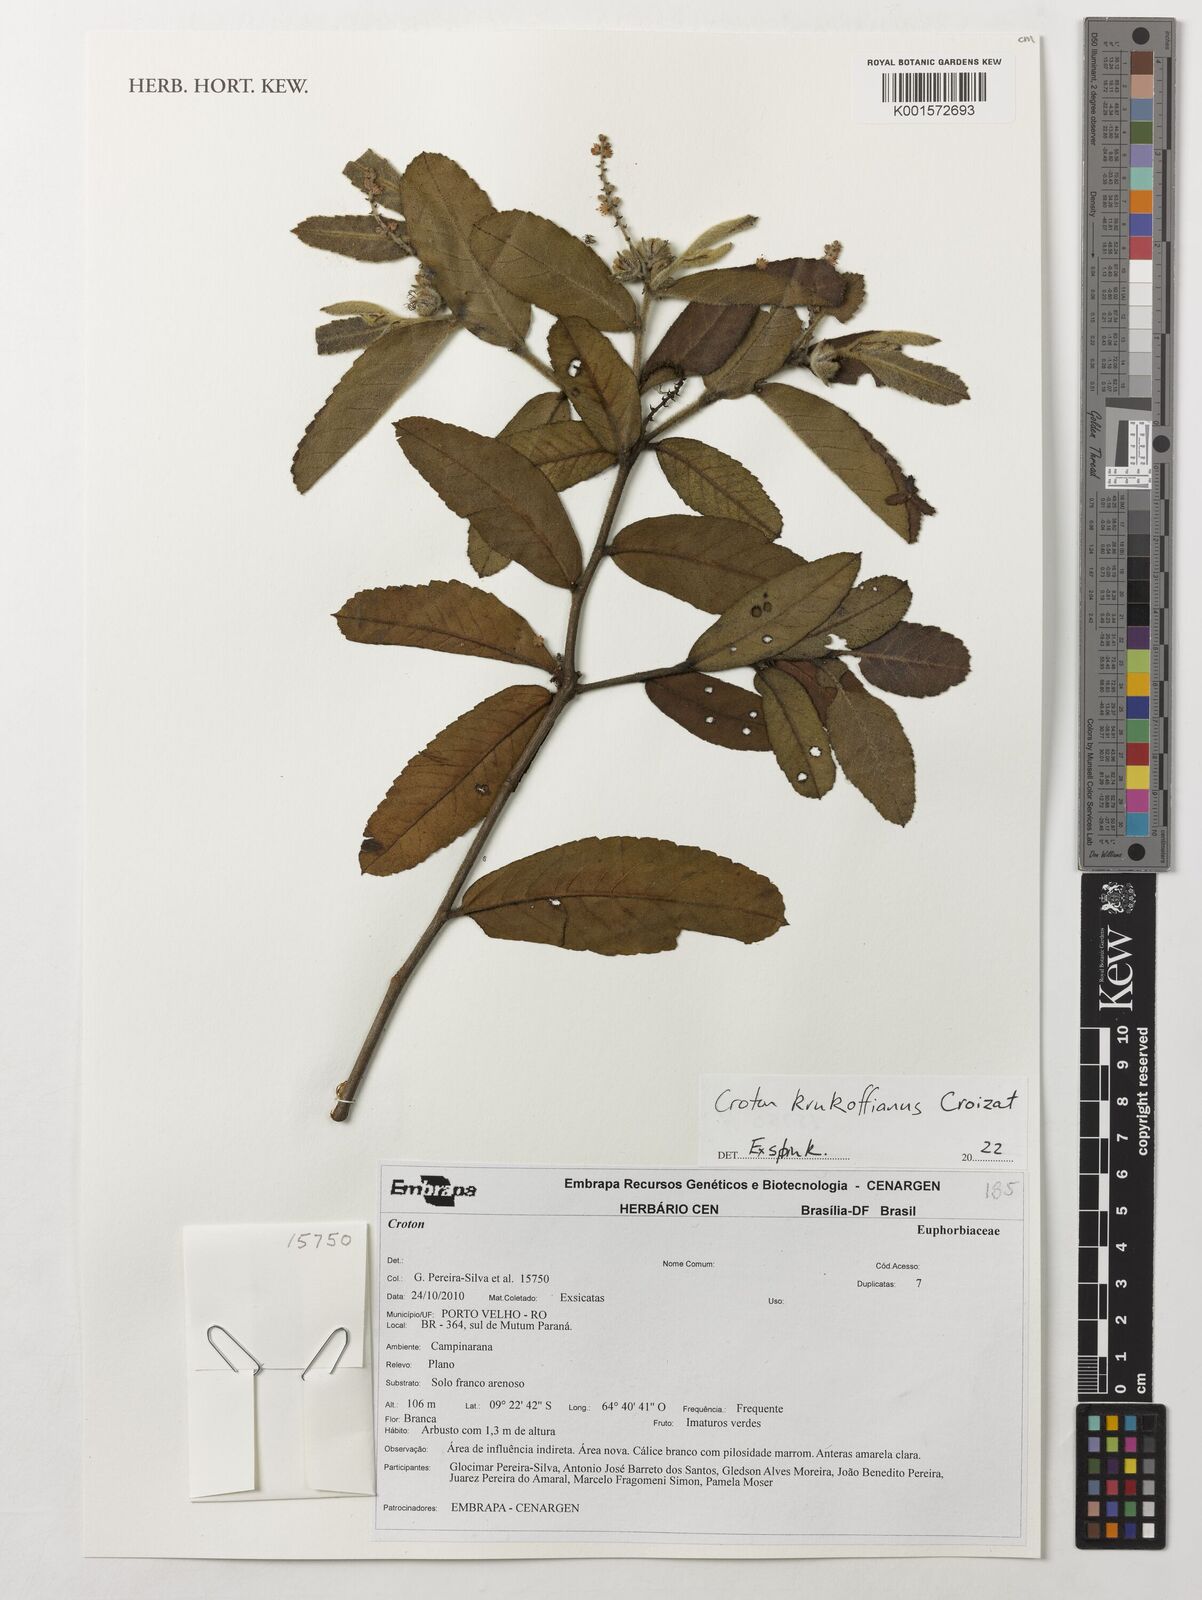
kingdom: Plantae
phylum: Tracheophyta
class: Magnoliopsida
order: Malpighiales
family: Euphorbiaceae
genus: Croton
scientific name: Croton krukoffianus
